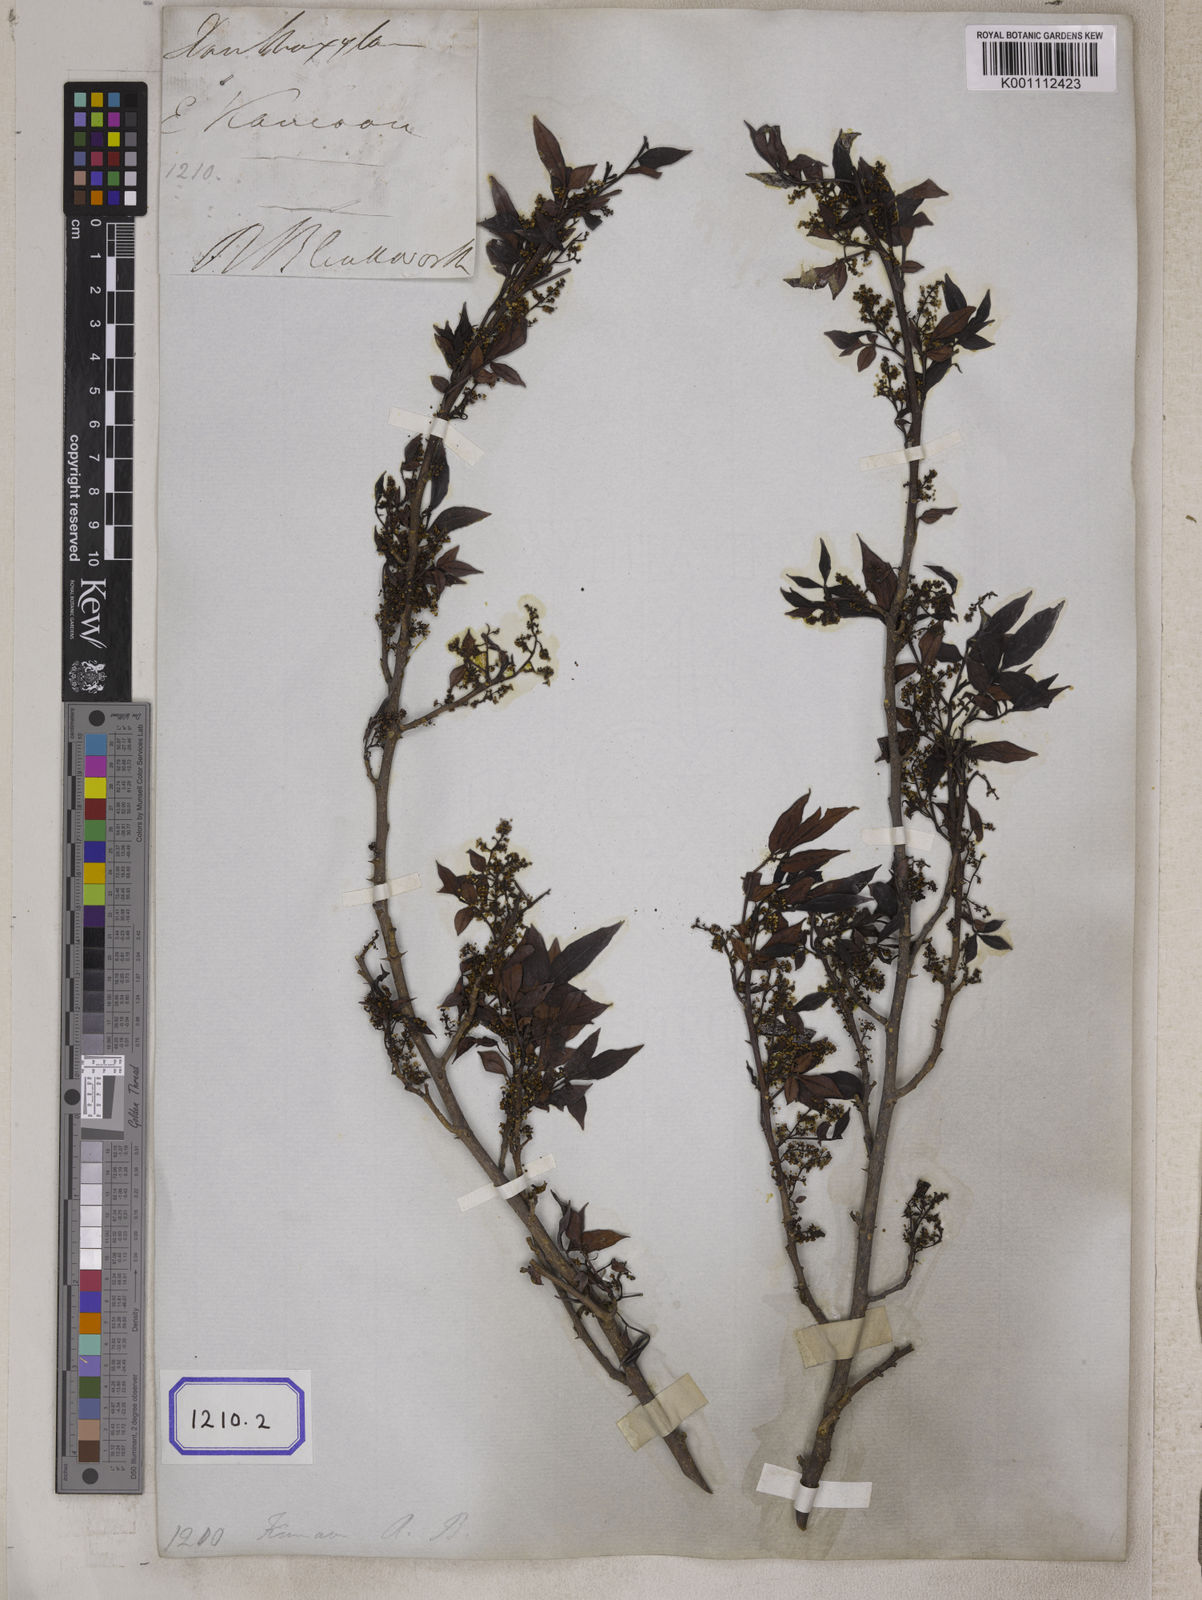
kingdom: Plantae
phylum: Tracheophyta
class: Magnoliopsida
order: Sapindales
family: Rutaceae
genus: Zanthoxylum
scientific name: Zanthoxylum armatum
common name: Winged prickly-ash
